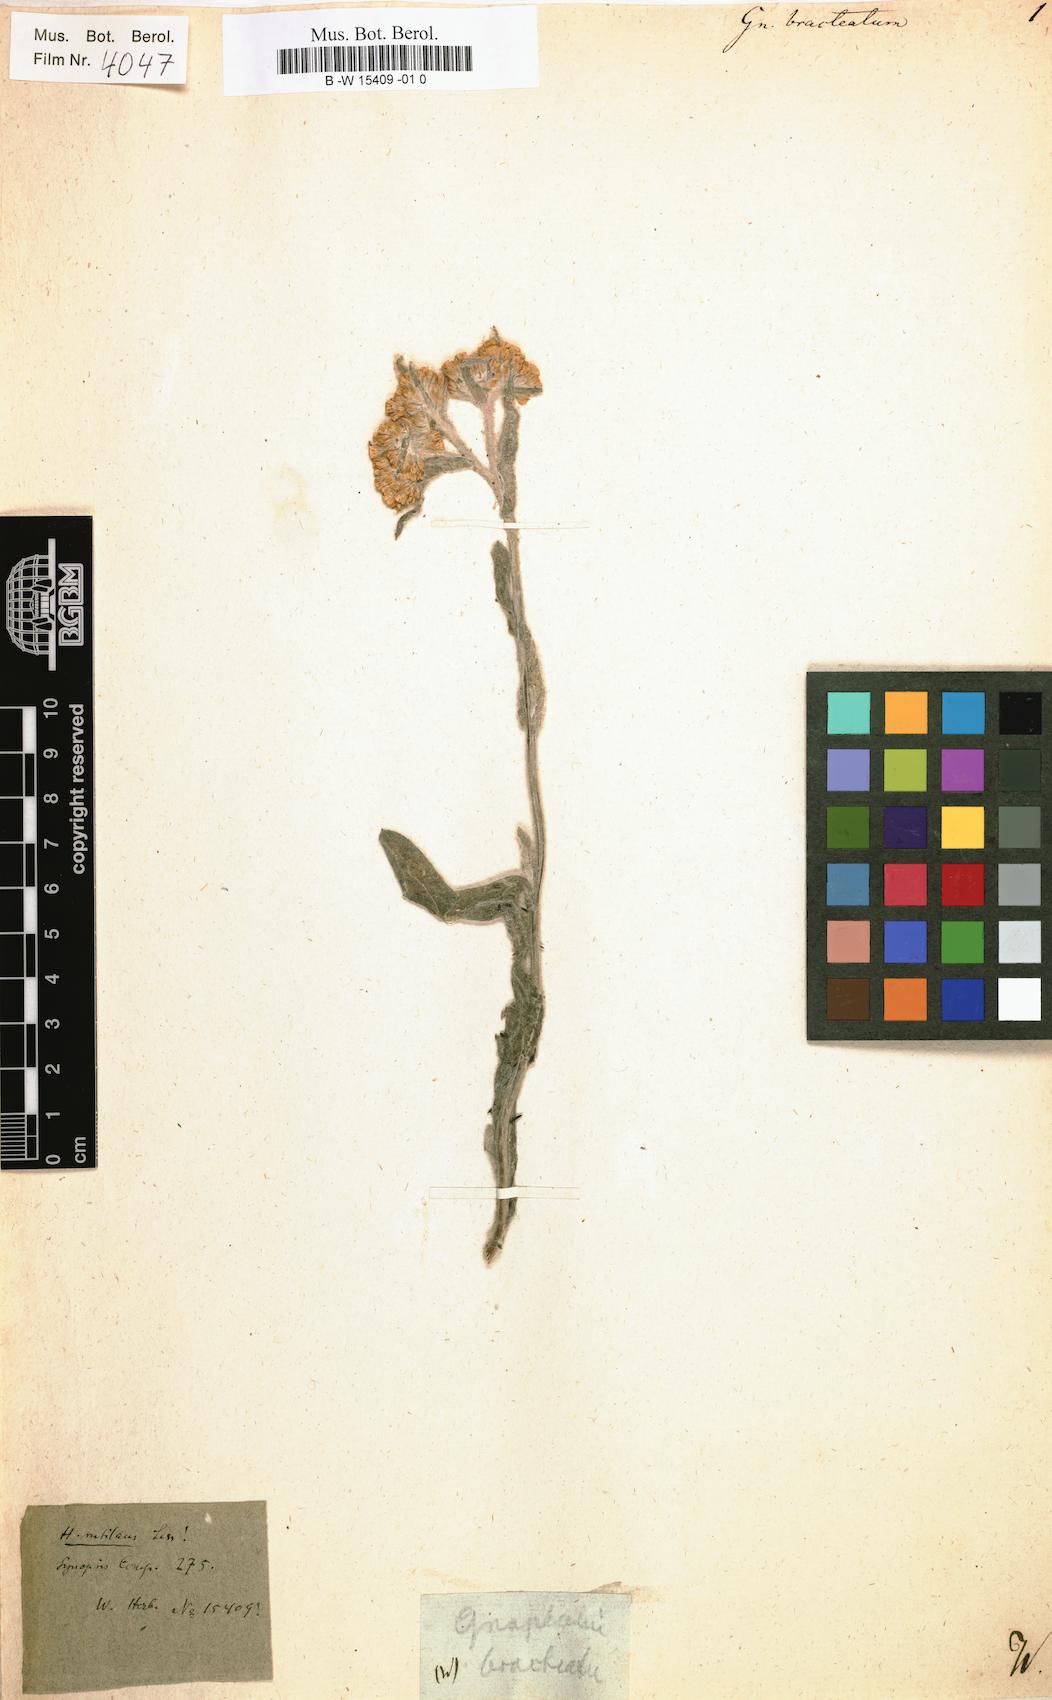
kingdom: Plantae
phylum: Tracheophyta
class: Magnoliopsida
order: Asterales
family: Asteraceae
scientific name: Asteraceae
